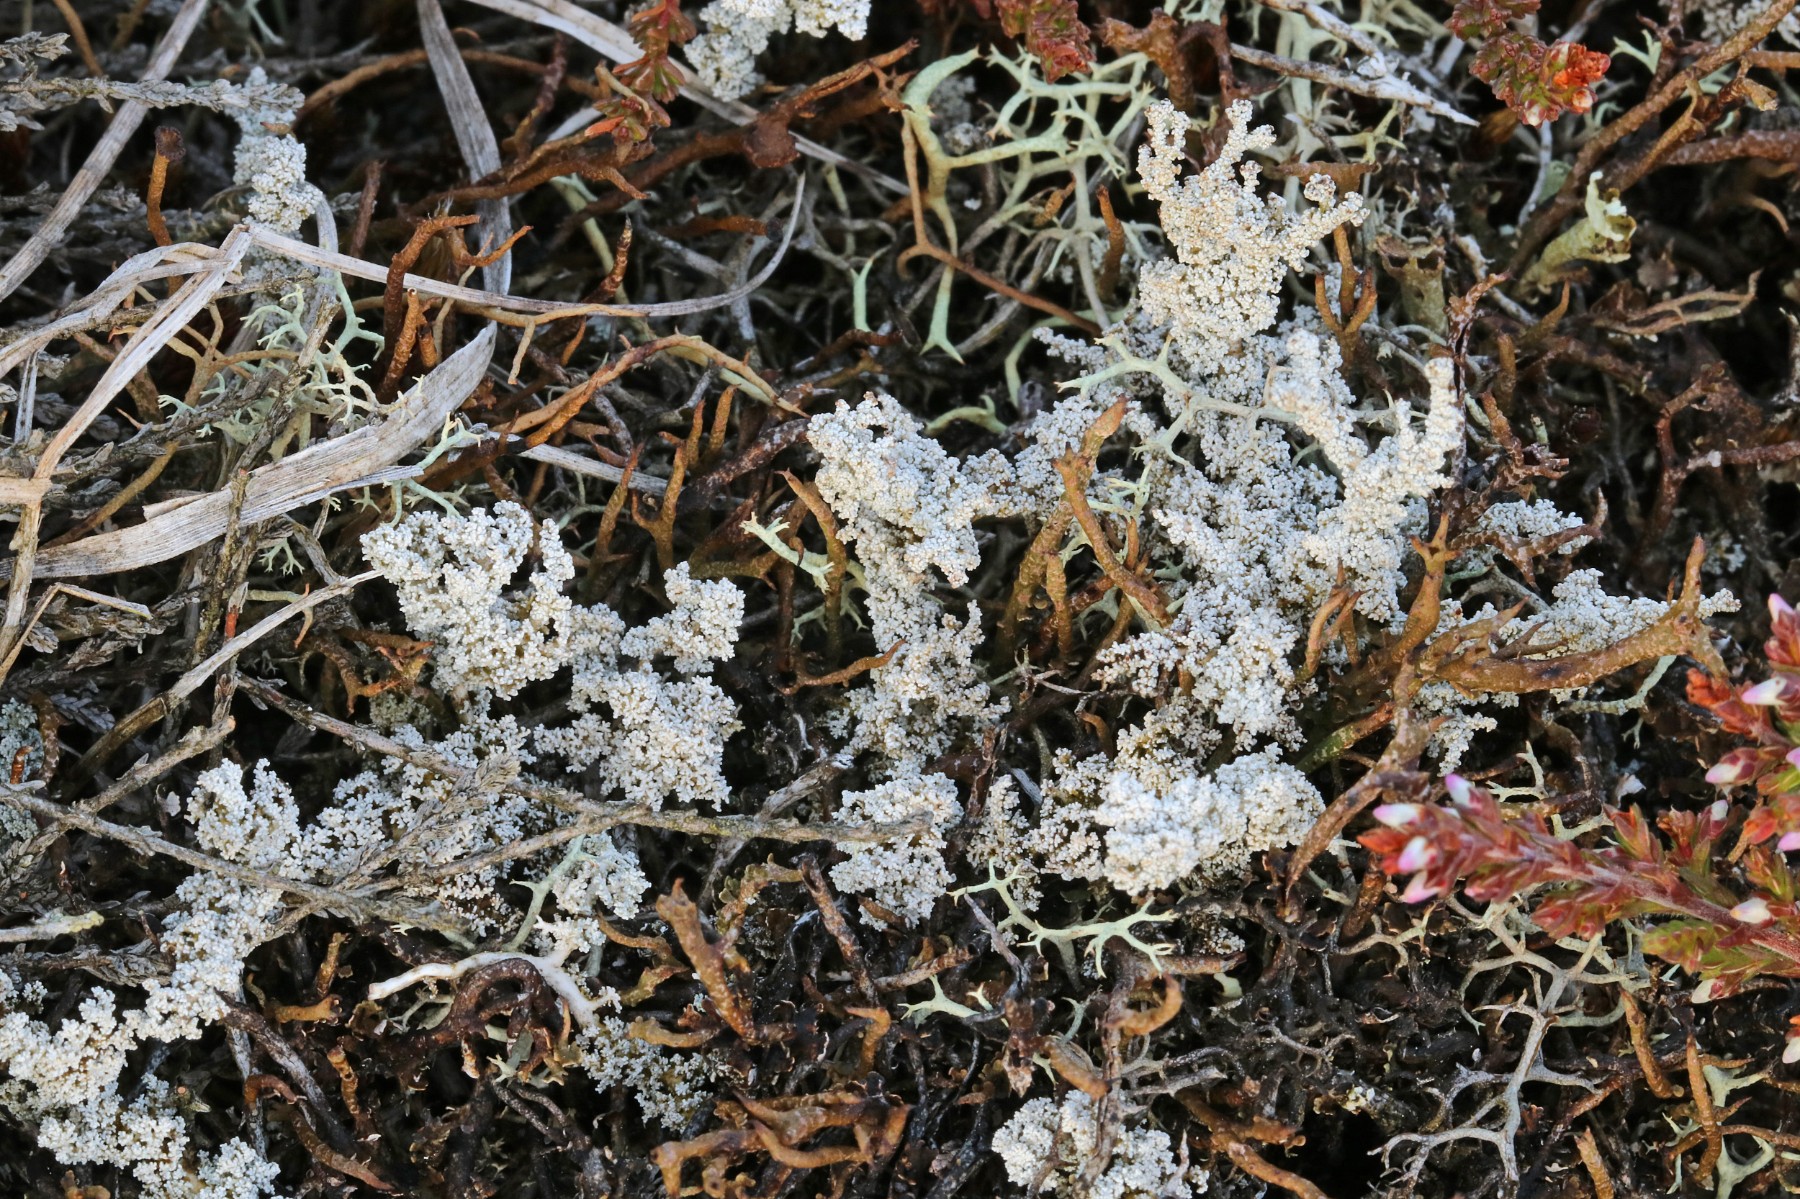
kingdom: Fungi
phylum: Ascomycota
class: Lecanoromycetes
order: Lecanorales
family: Stereocaulaceae
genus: Stereocaulon
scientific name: Stereocaulon saxatile
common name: klit-korallav
